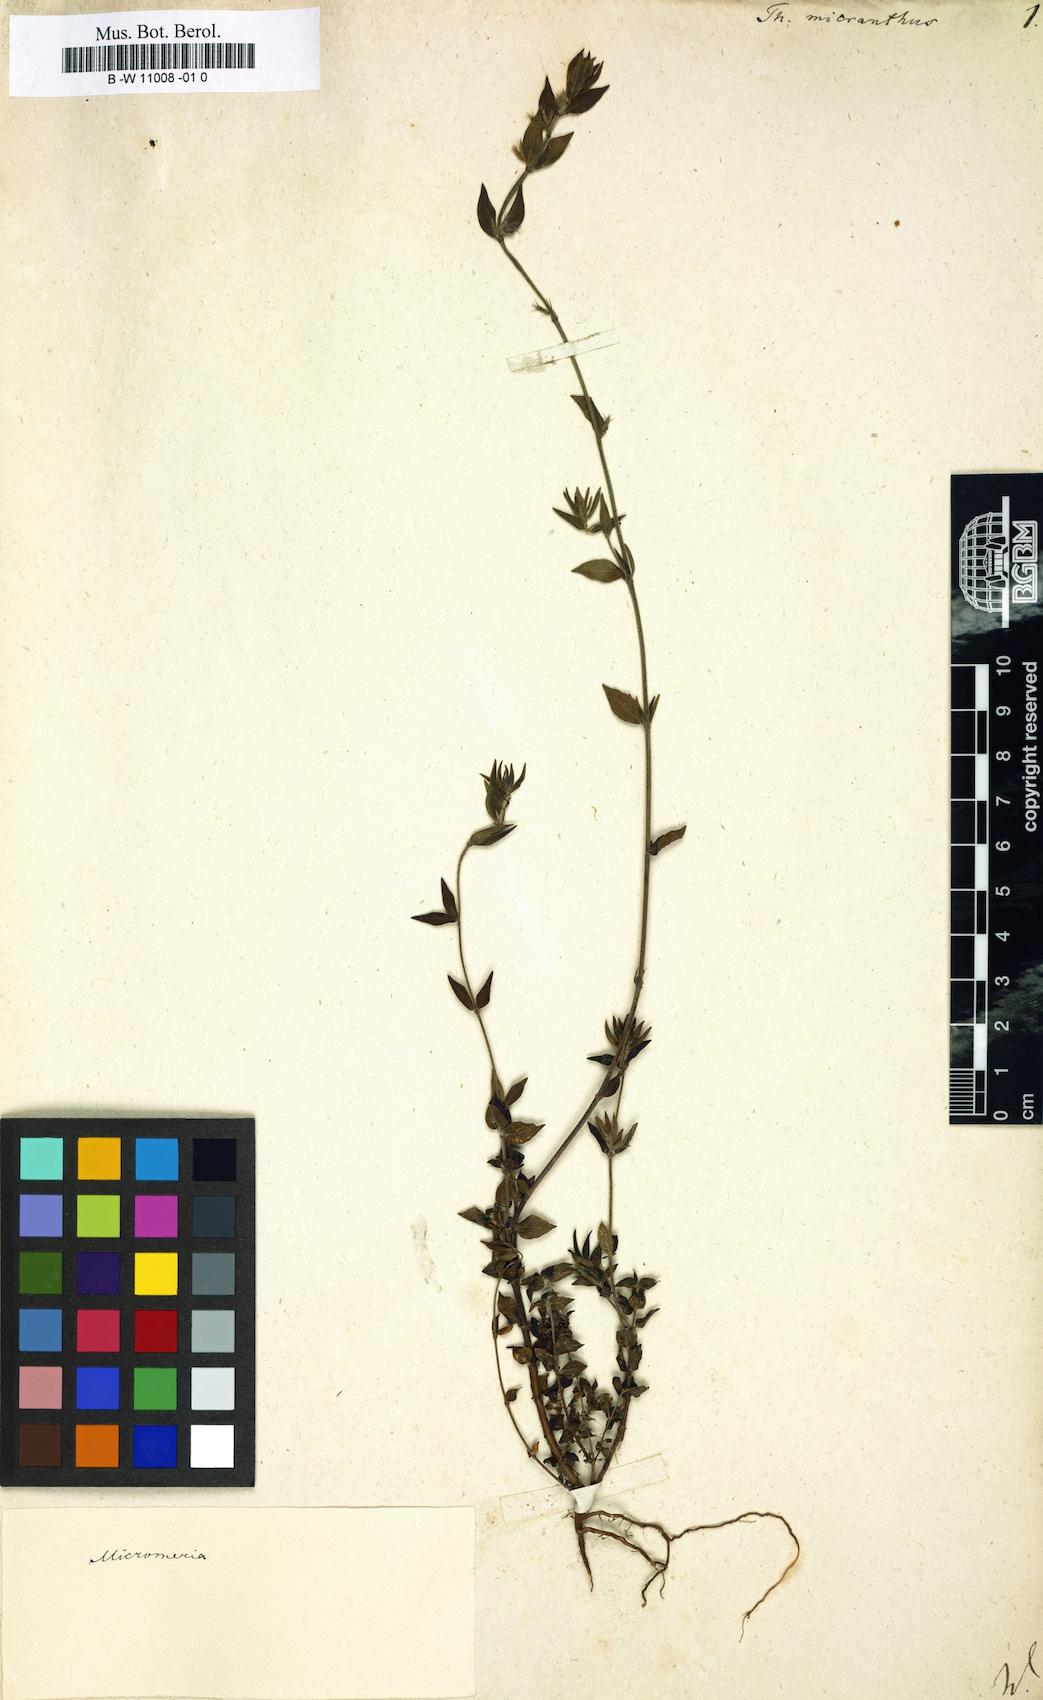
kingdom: Plantae
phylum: Tracheophyta
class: Magnoliopsida
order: Lamiales
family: Lamiaceae
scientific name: Lamiaceae
